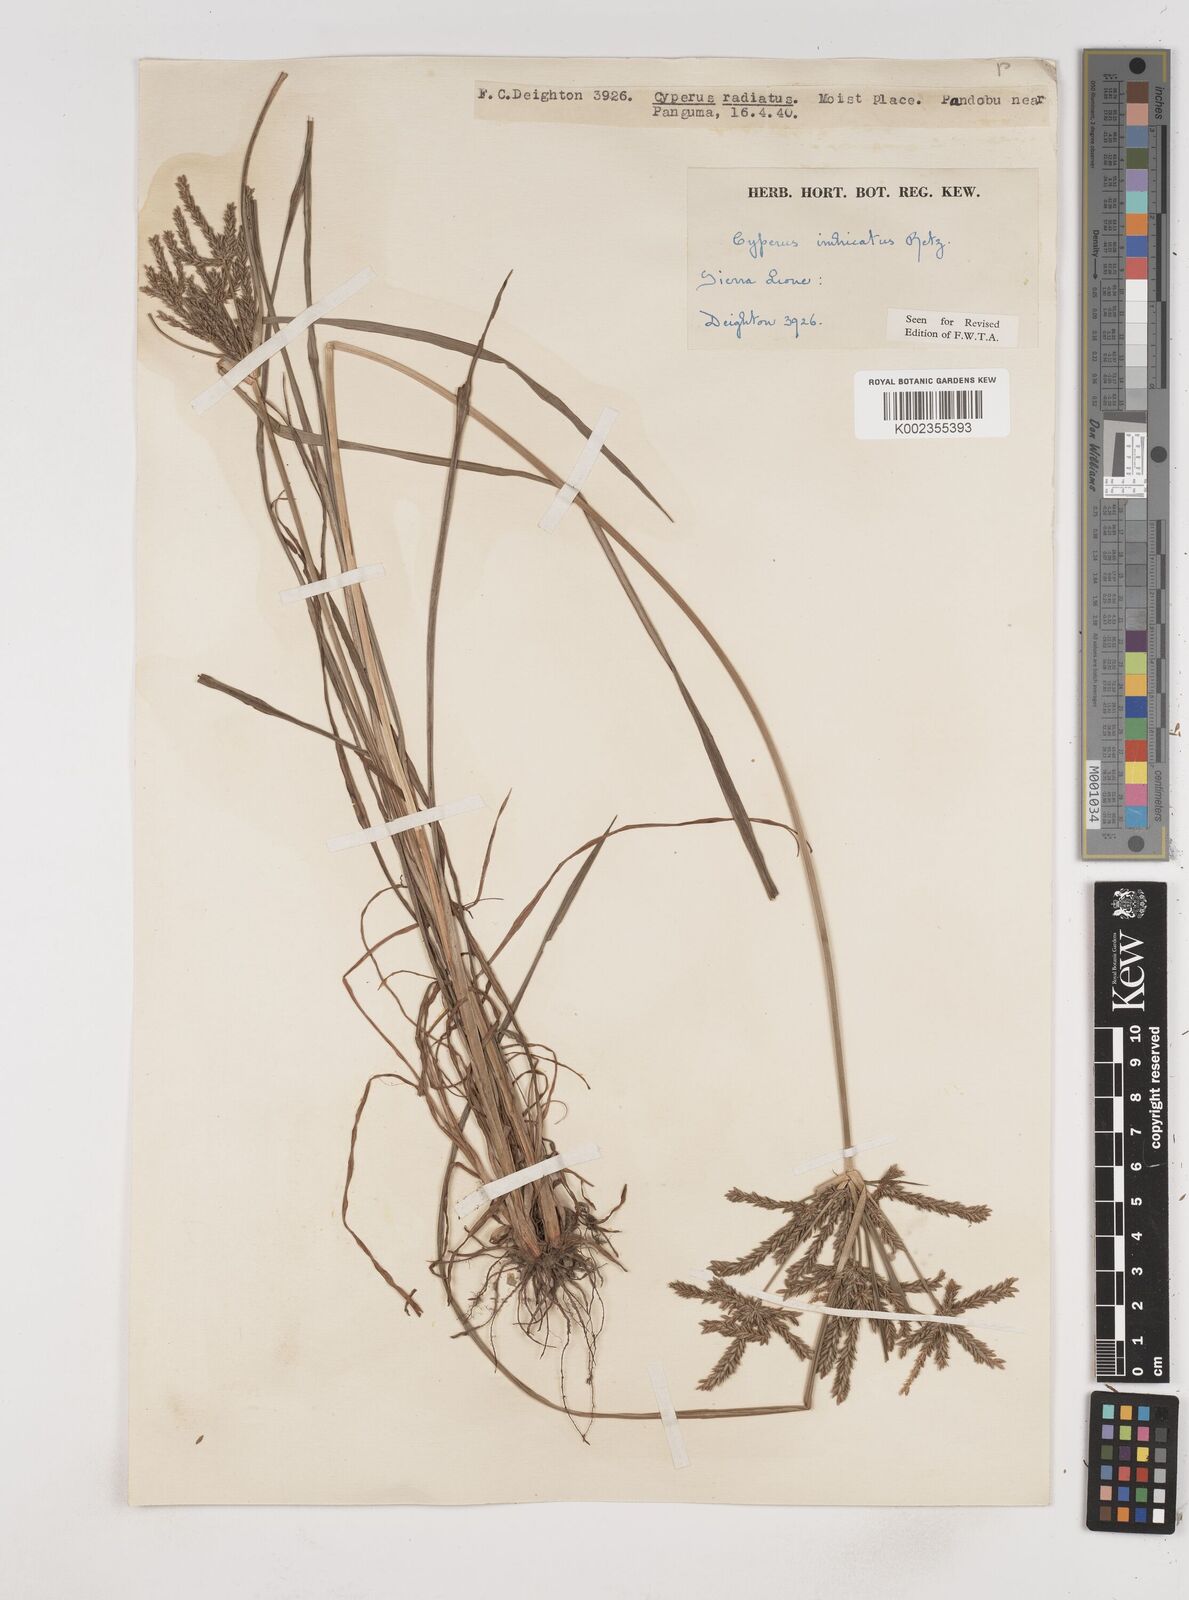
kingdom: Plantae
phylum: Tracheophyta
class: Liliopsida
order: Poales
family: Cyperaceae
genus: Cyperus
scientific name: Cyperus imbricatus
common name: Shingle flatsedge
